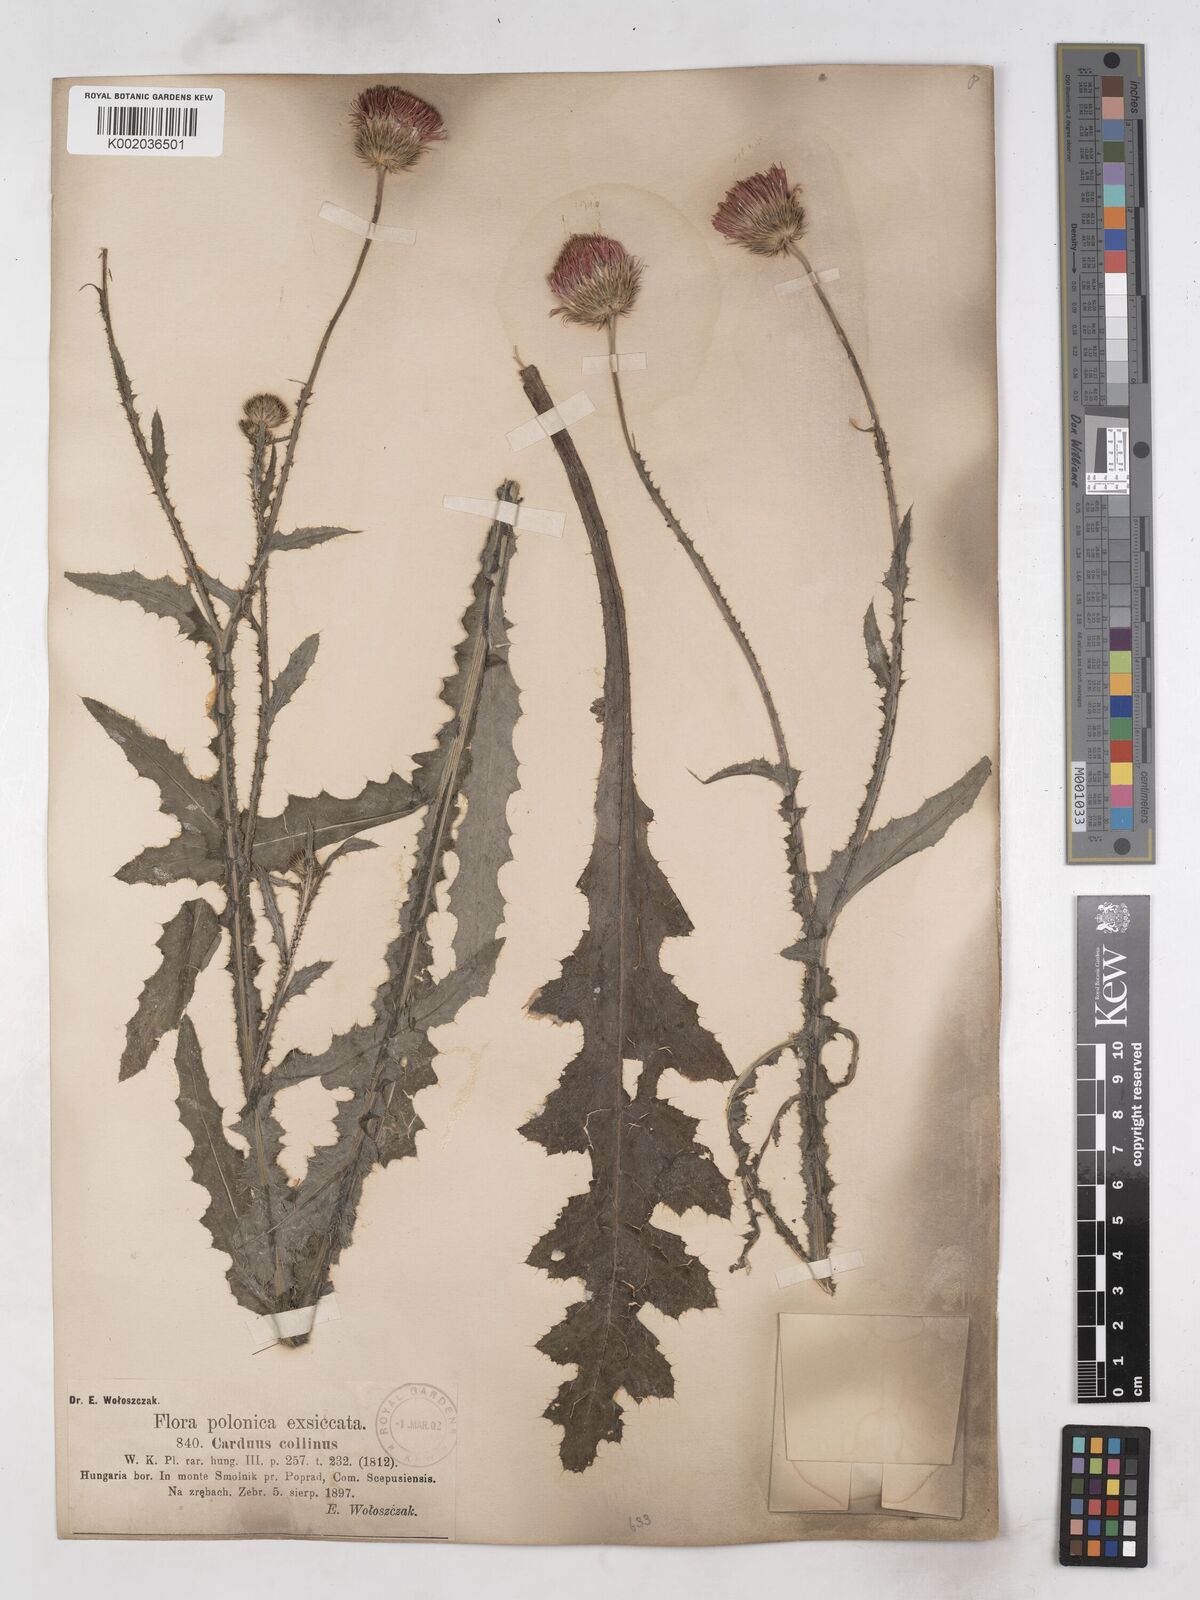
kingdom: Plantae
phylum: Tracheophyta
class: Magnoliopsida
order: Asterales
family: Asteraceae
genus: Carduus
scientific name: Carduus collinus
